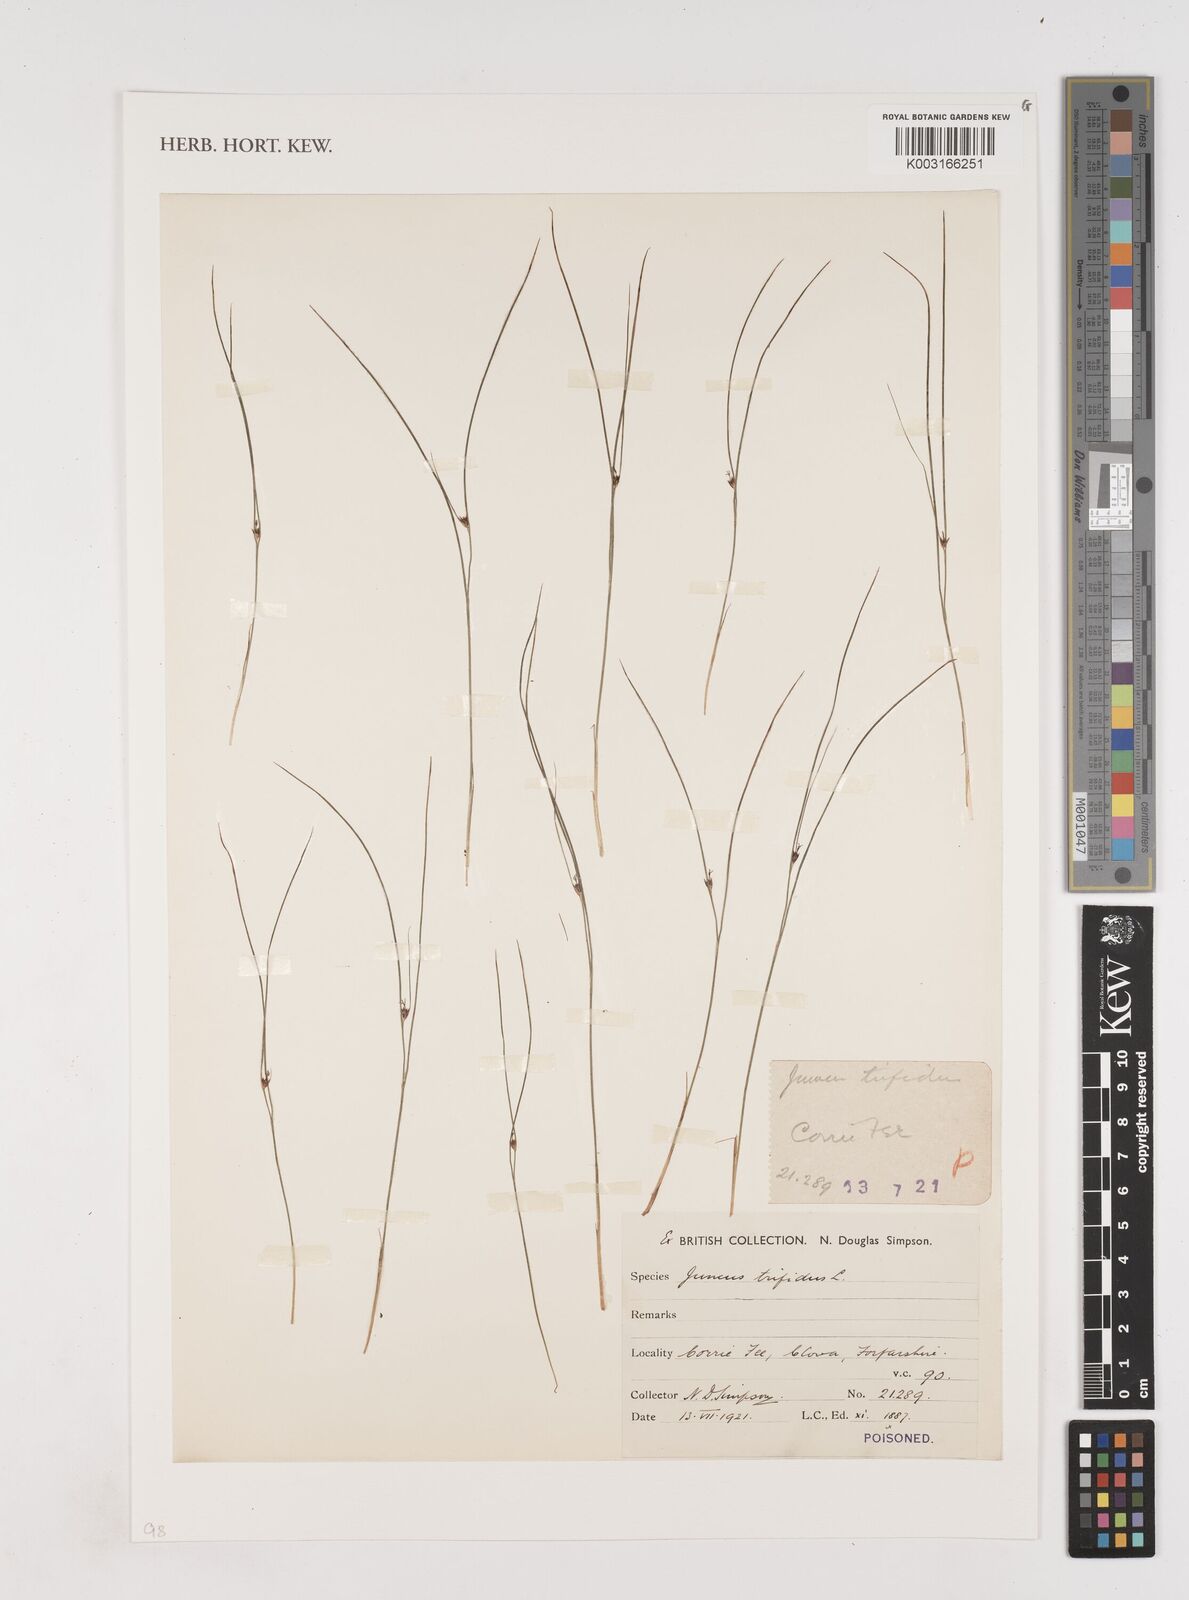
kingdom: Plantae
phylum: Tracheophyta
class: Liliopsida
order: Poales
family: Juncaceae
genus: Oreojuncus
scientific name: Oreojuncus trifidus
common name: Highland rush
